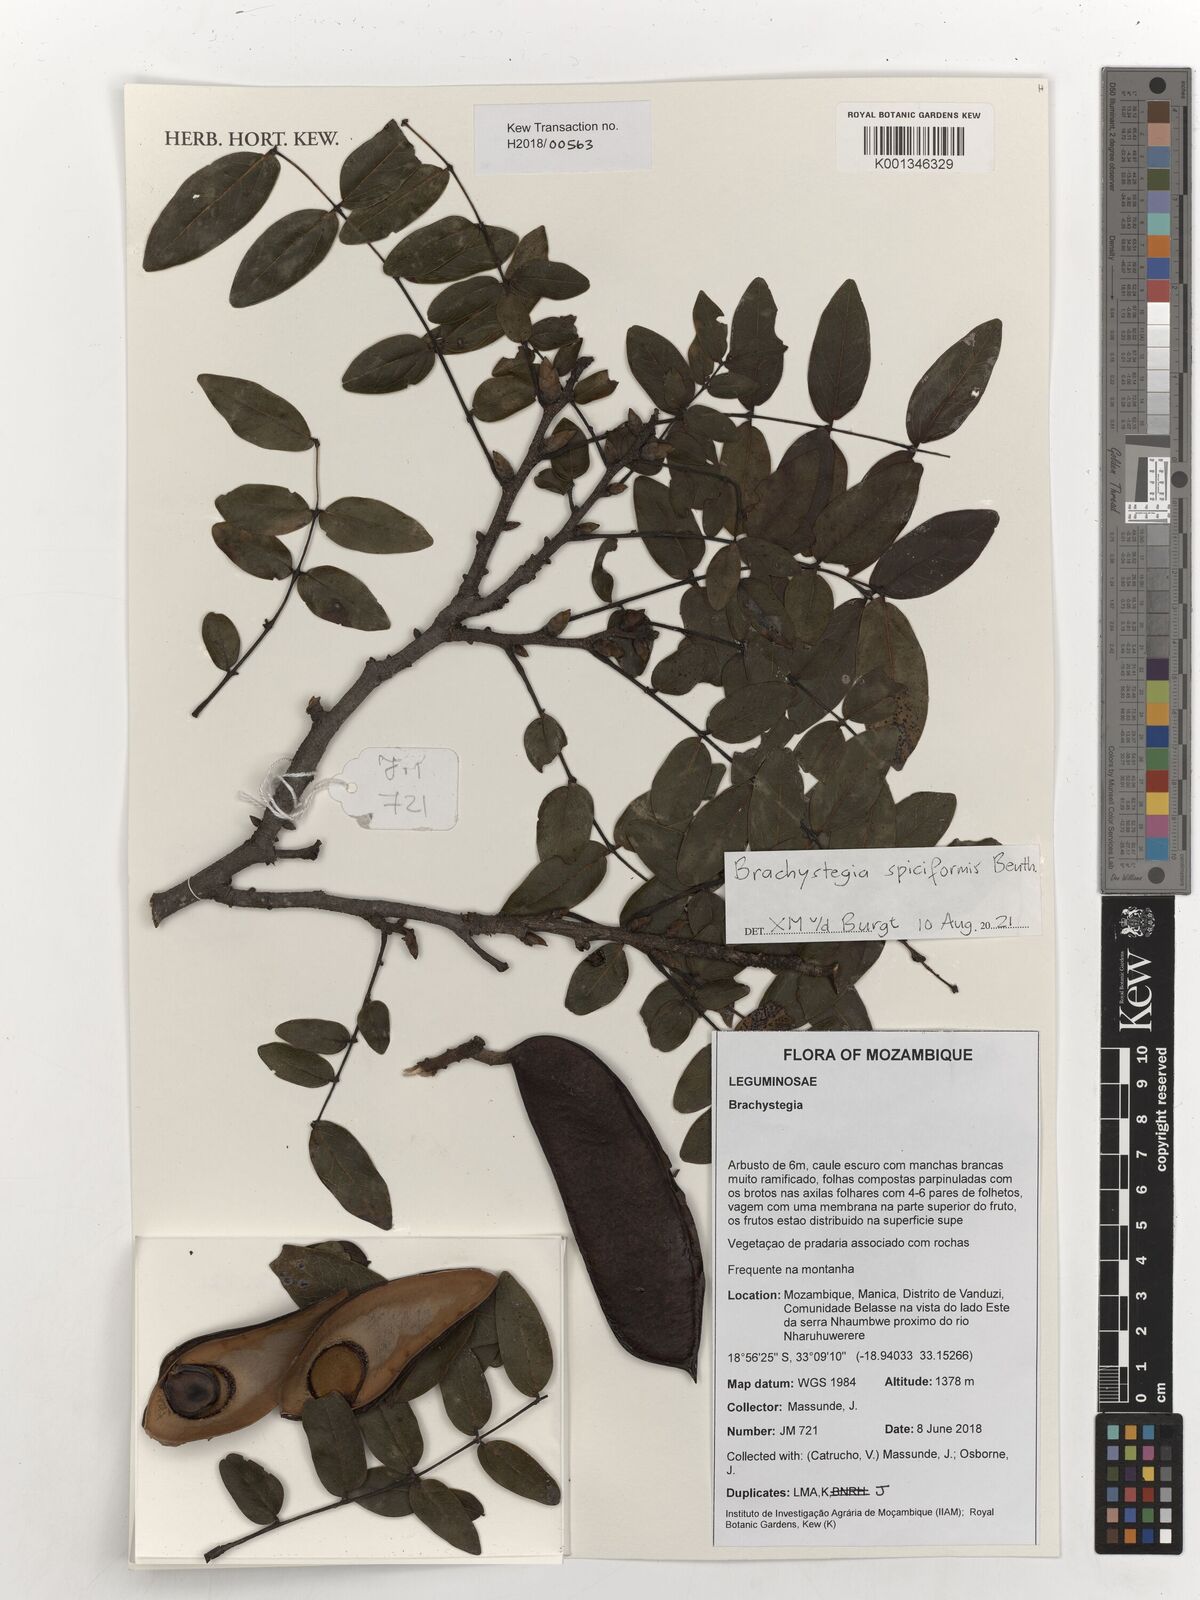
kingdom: Plantae
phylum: Tracheophyta
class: Magnoliopsida
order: Fabales
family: Fabaceae
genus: Brachystegia
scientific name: Brachystegia spiciformis
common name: Zebrawood
